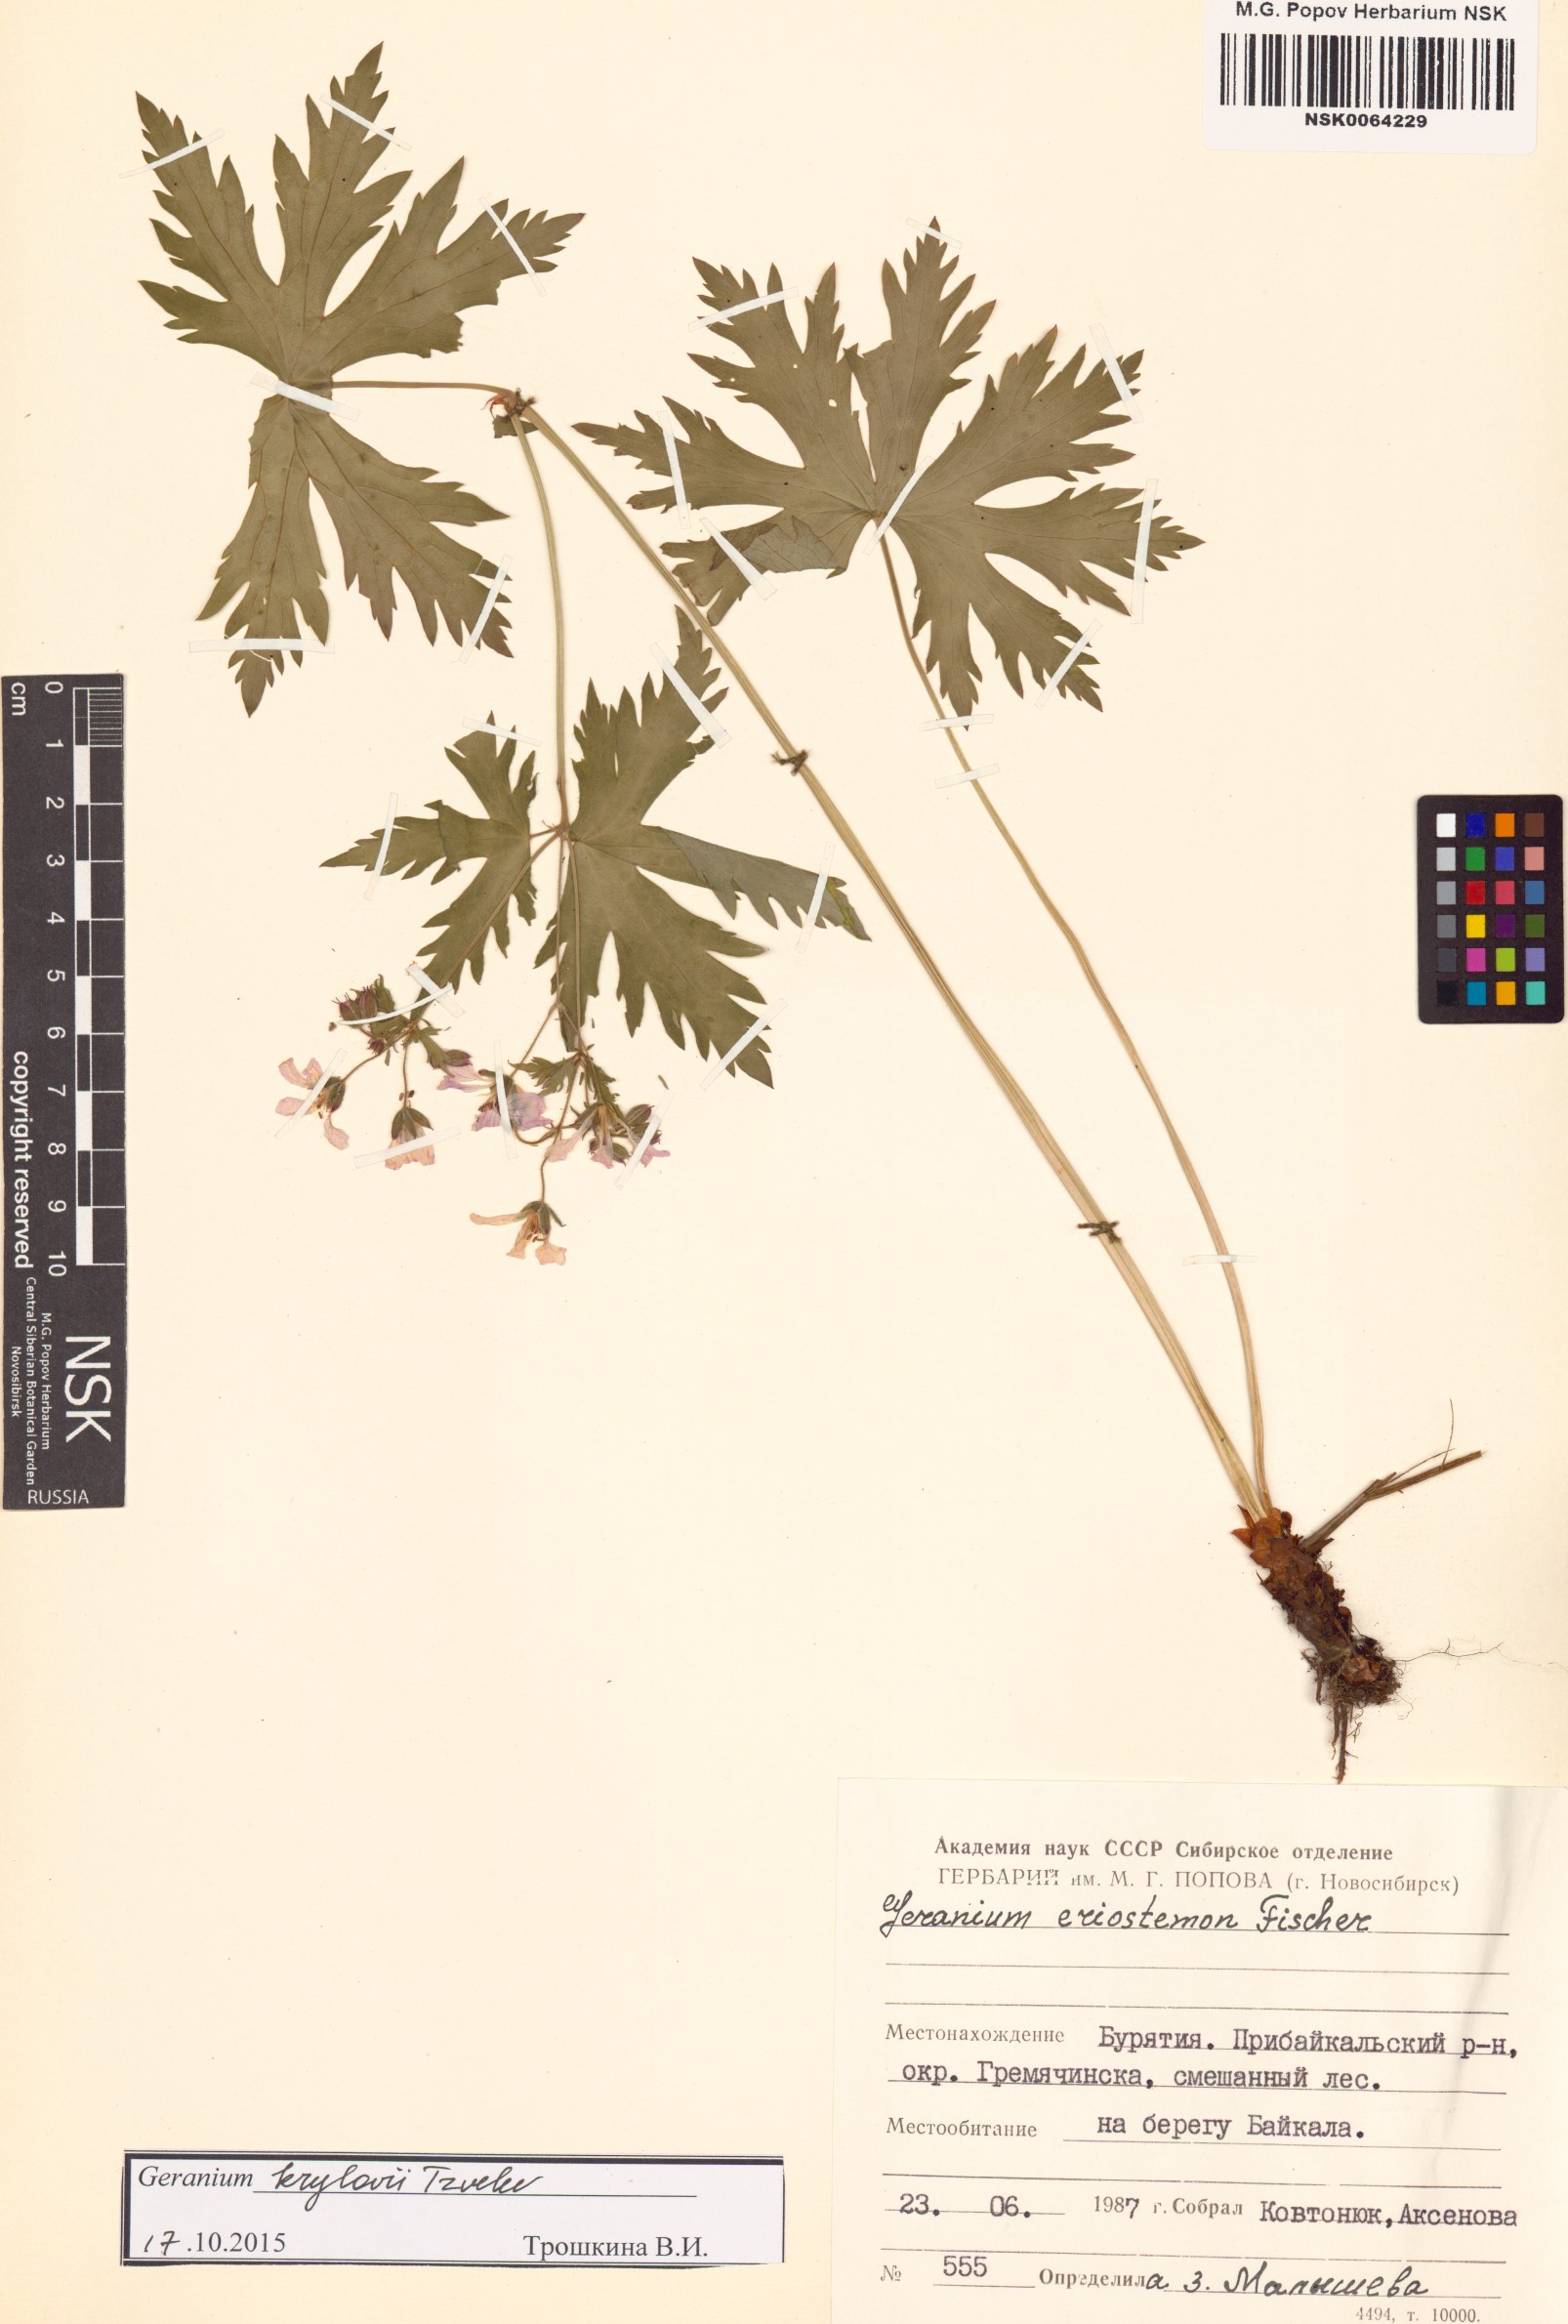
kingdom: Plantae
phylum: Tracheophyta
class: Magnoliopsida
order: Geraniales
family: Geraniaceae
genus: Geranium
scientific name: Geranium sylvaticum
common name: Wood crane's-bill
